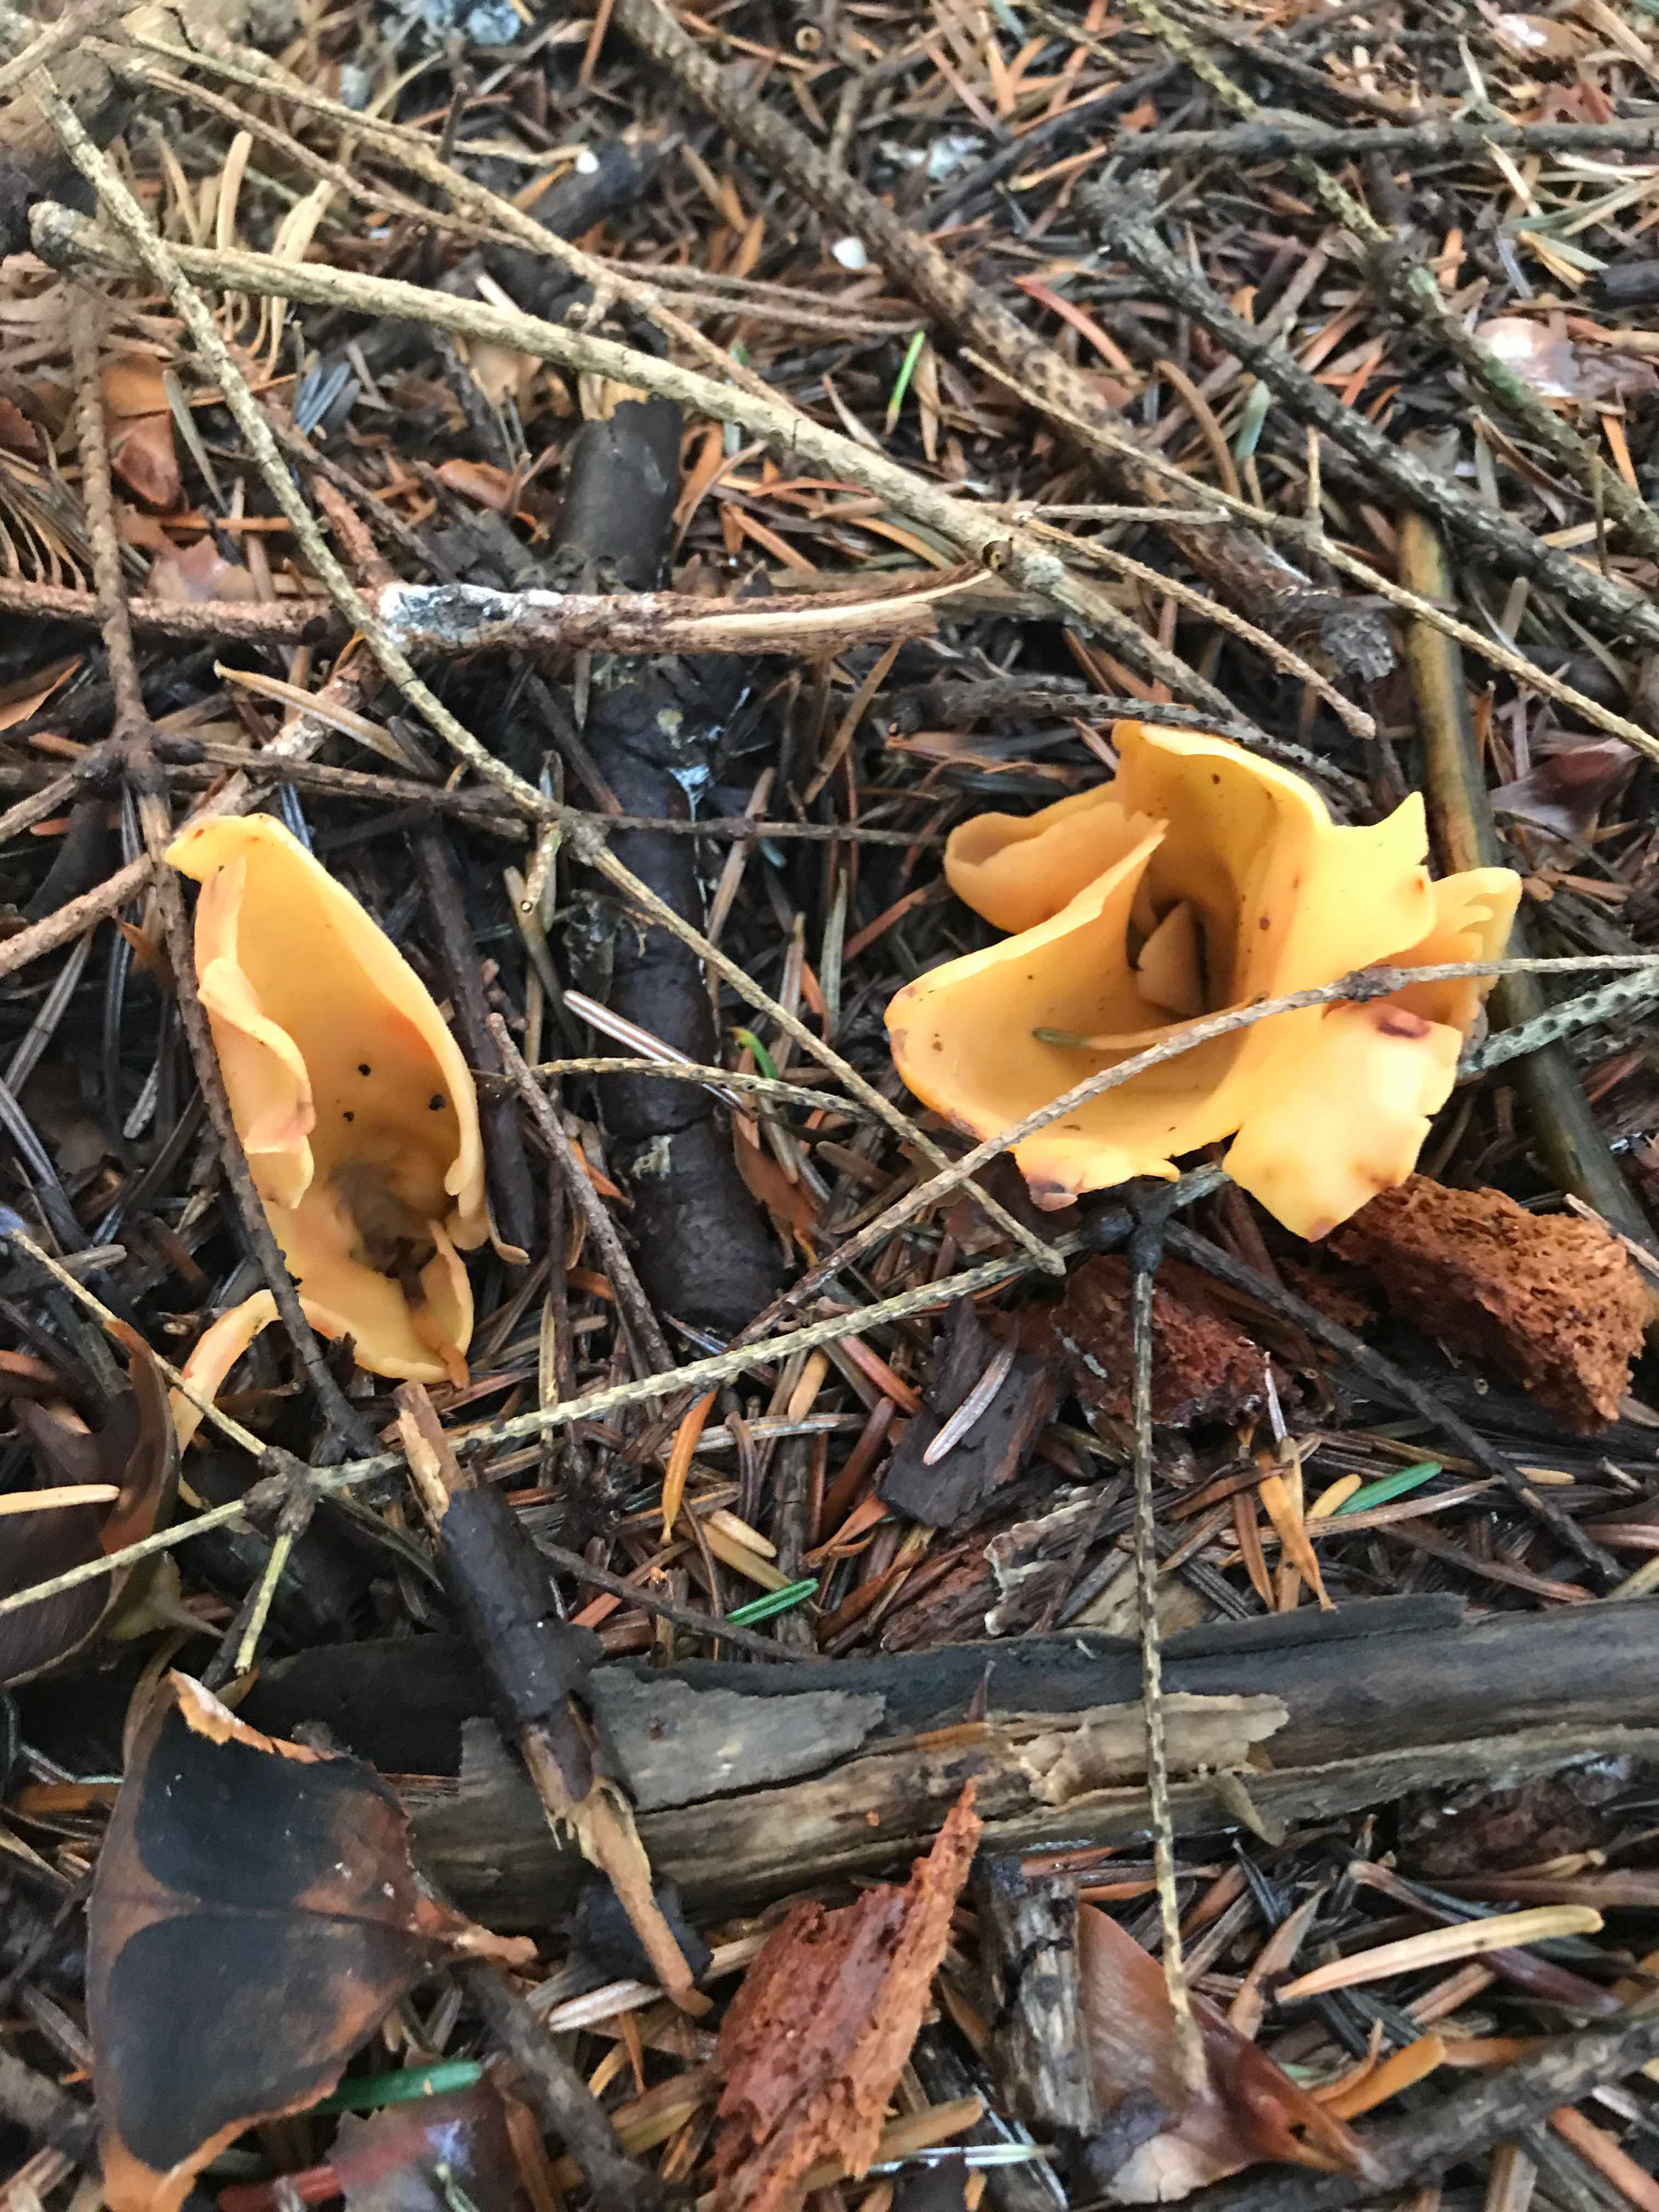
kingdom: Fungi
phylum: Ascomycota
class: Pezizomycetes
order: Pezizales
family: Otideaceae
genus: Otidea
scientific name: Otidea onotica
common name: æsel-ørebæger
